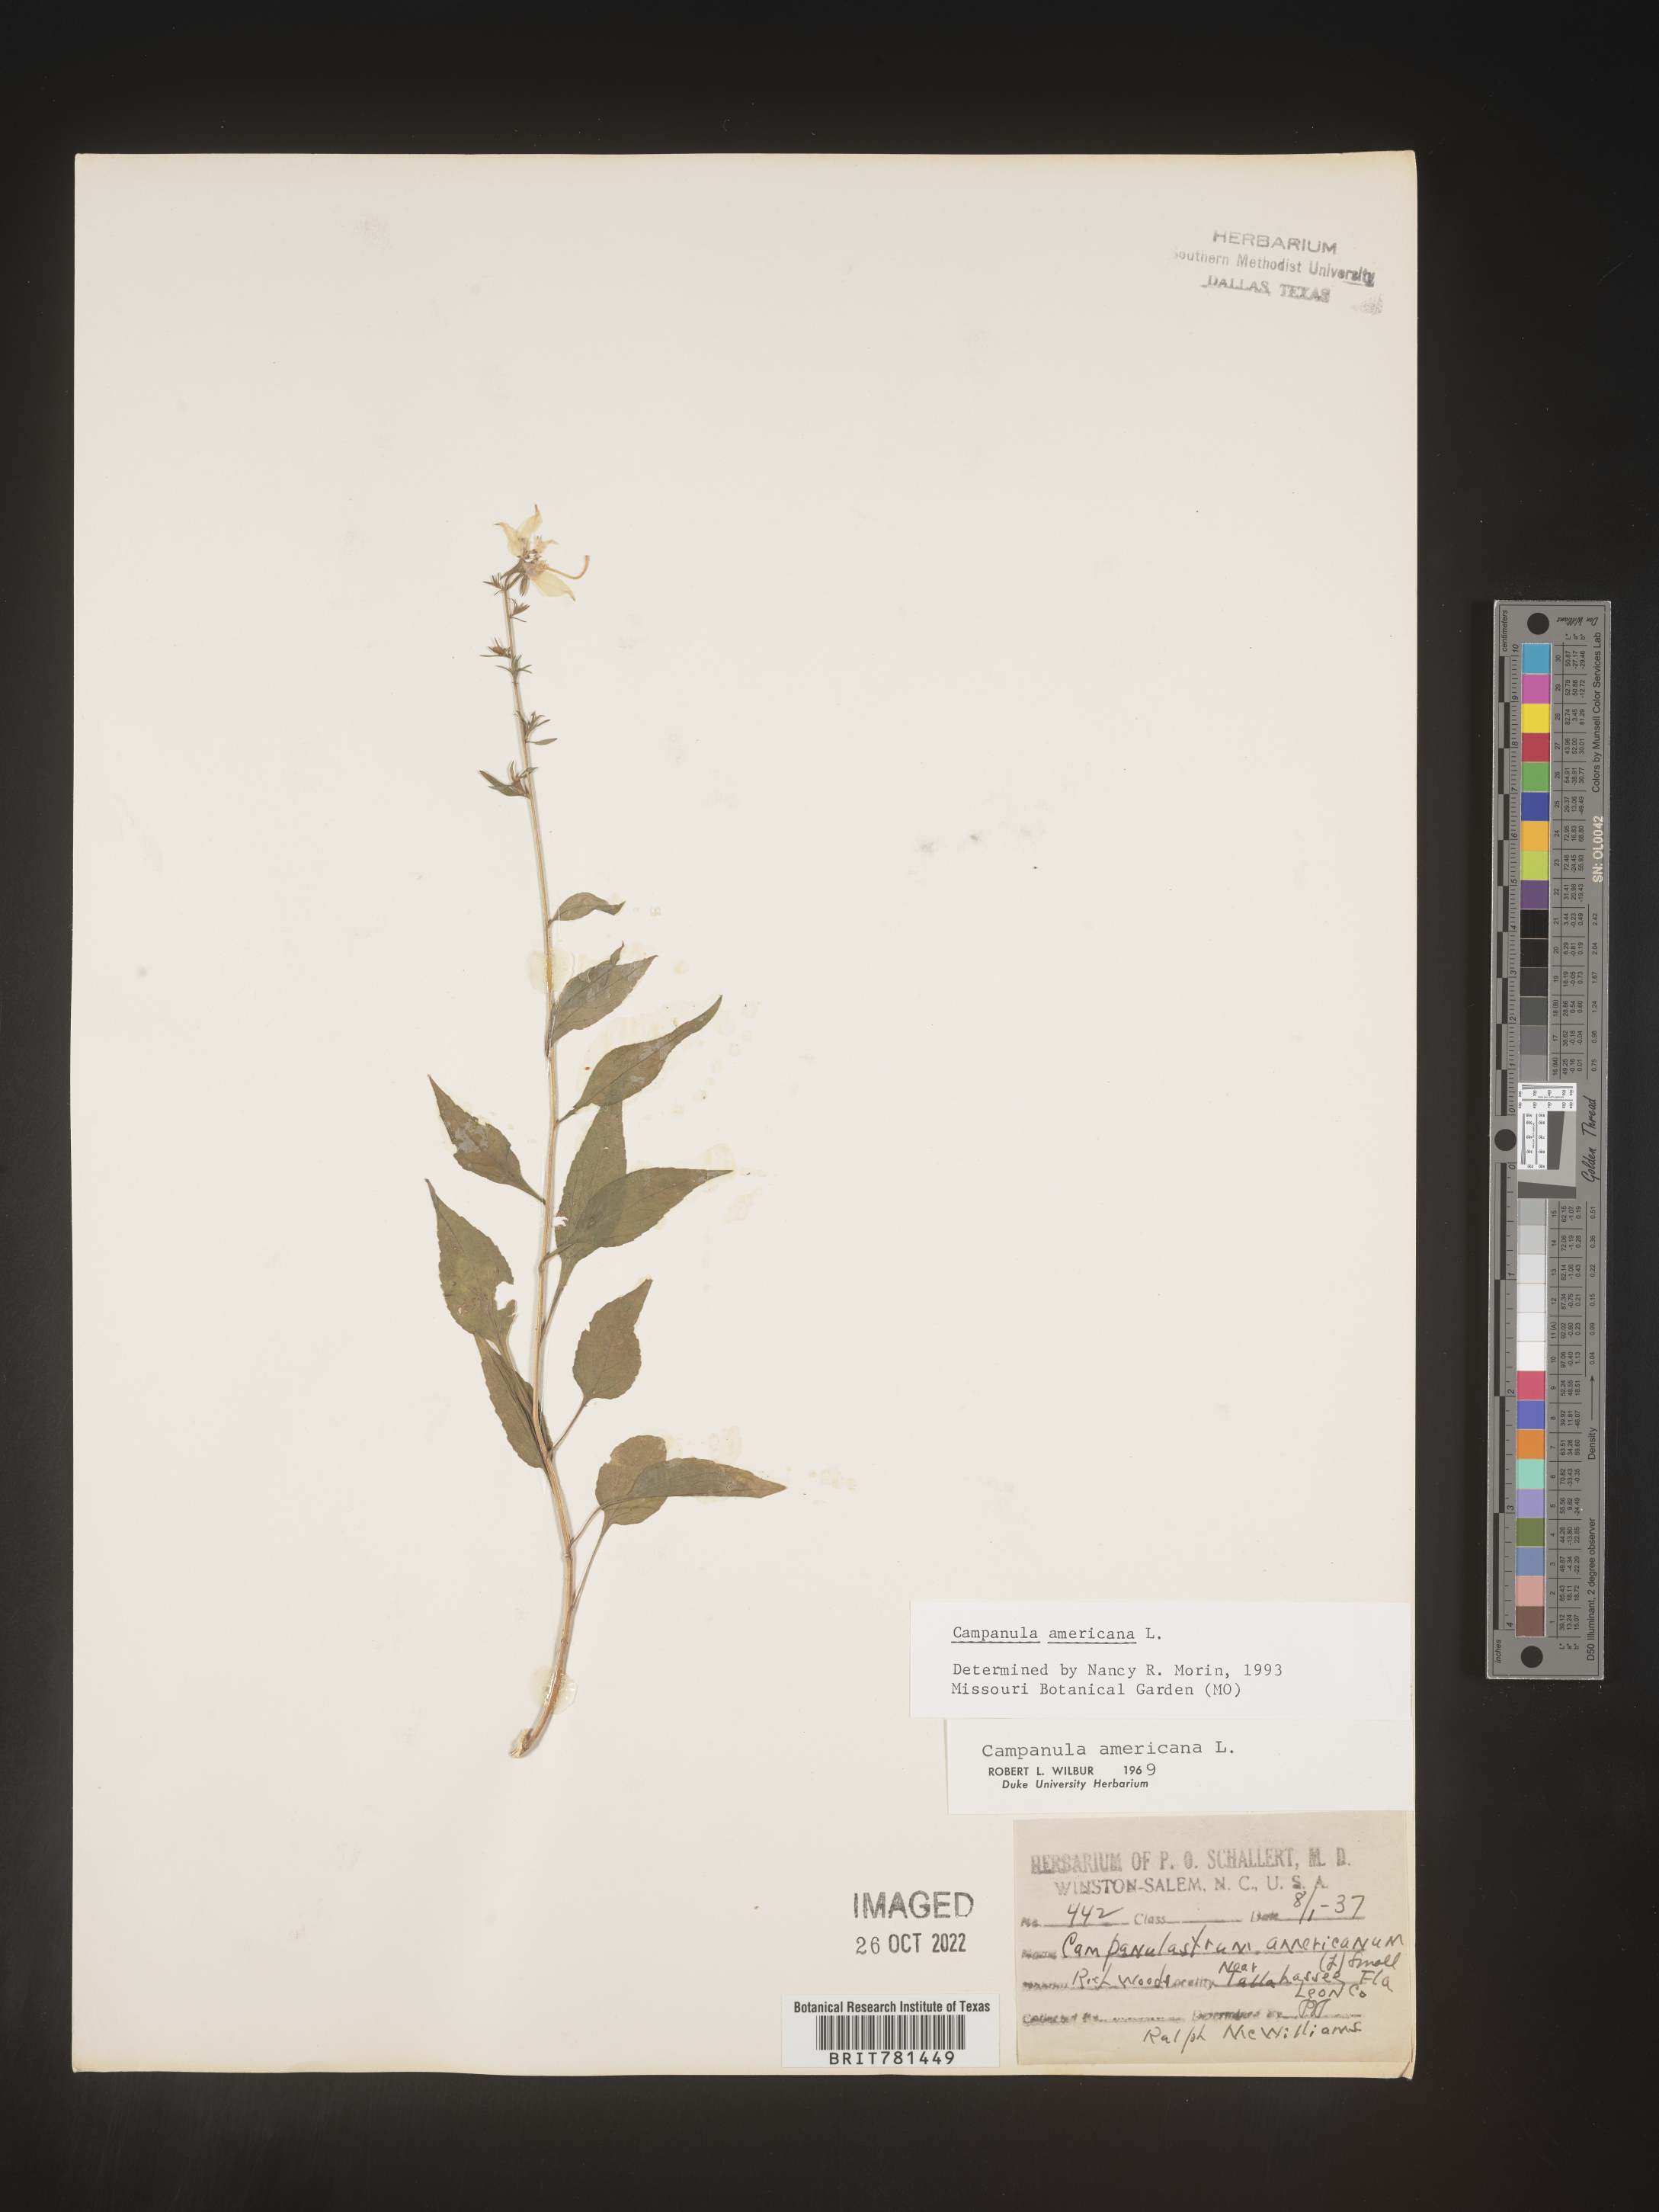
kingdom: Plantae
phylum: Tracheophyta
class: Magnoliopsida
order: Asterales
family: Campanulaceae
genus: Campanula
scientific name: Campanula americana
